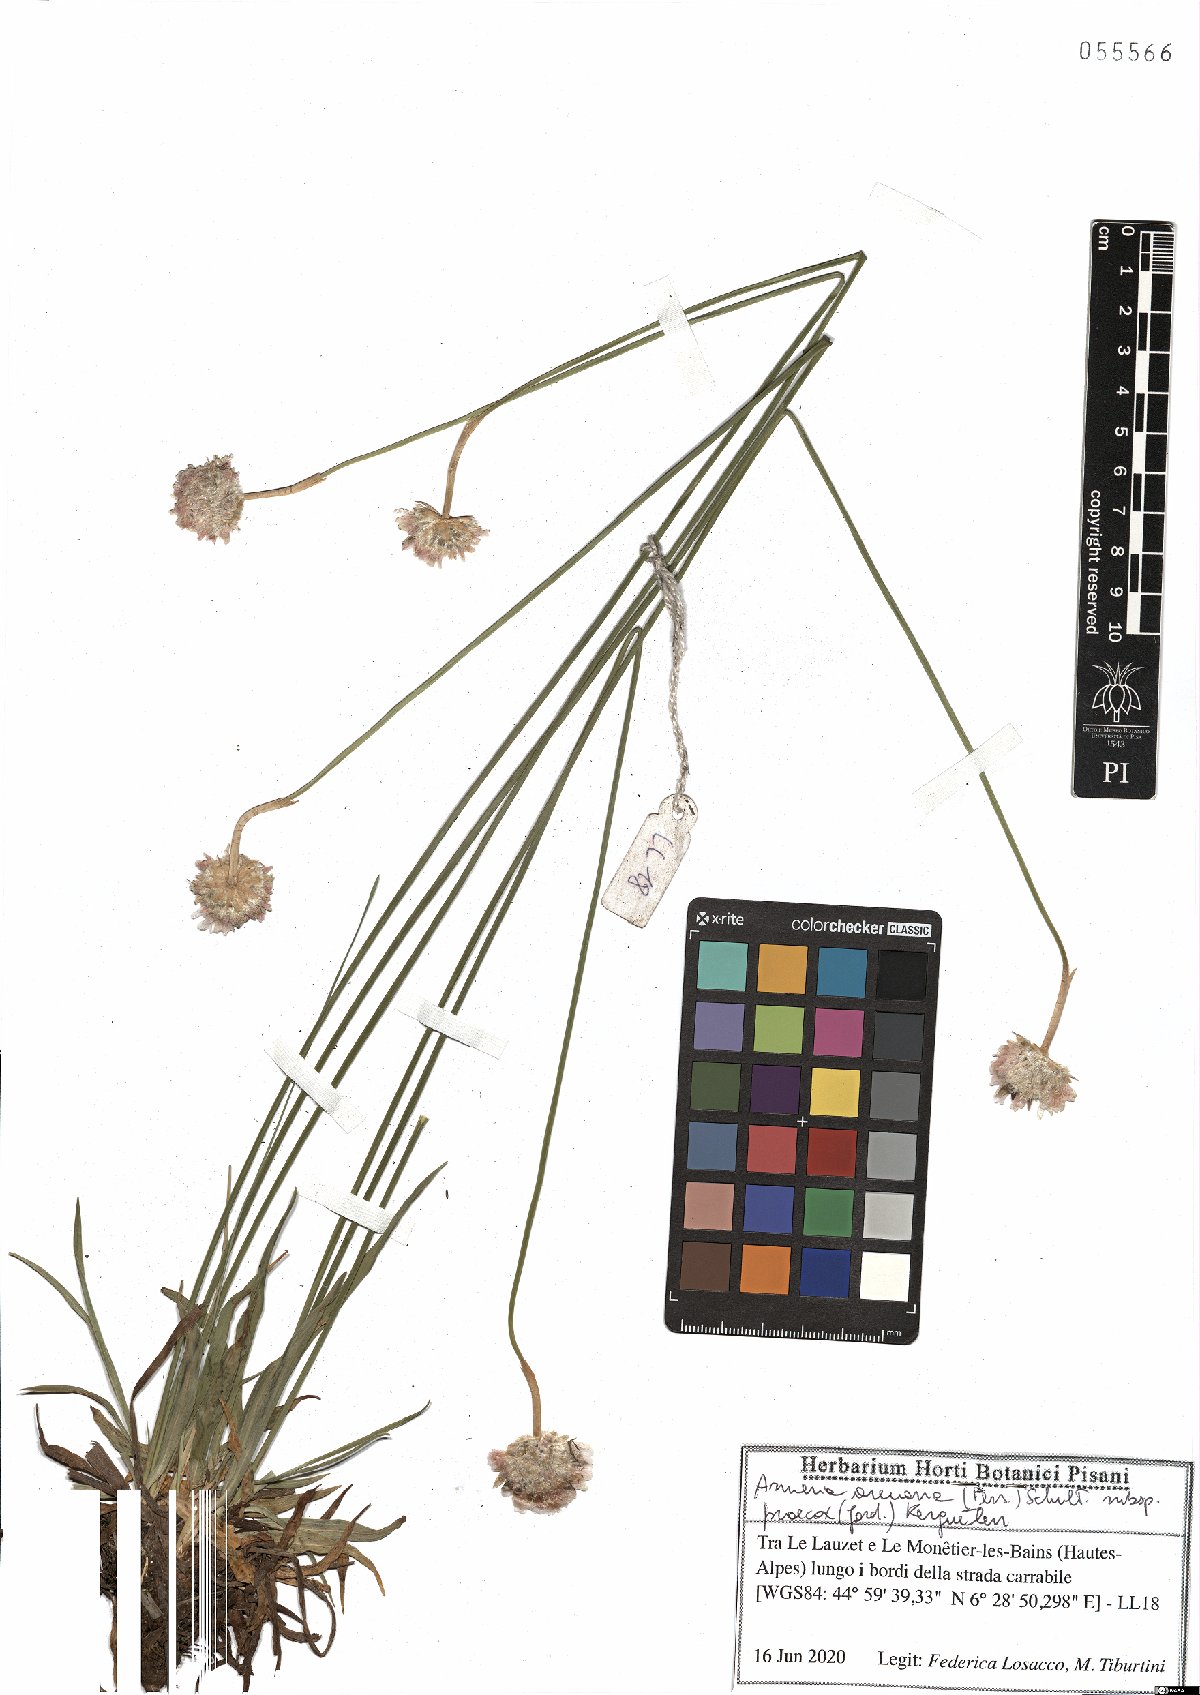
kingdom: Plantae
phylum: Tracheophyta
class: Magnoliopsida
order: Caryophyllales
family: Plumbaginaceae
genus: Armeria
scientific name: Armeria arenaria
